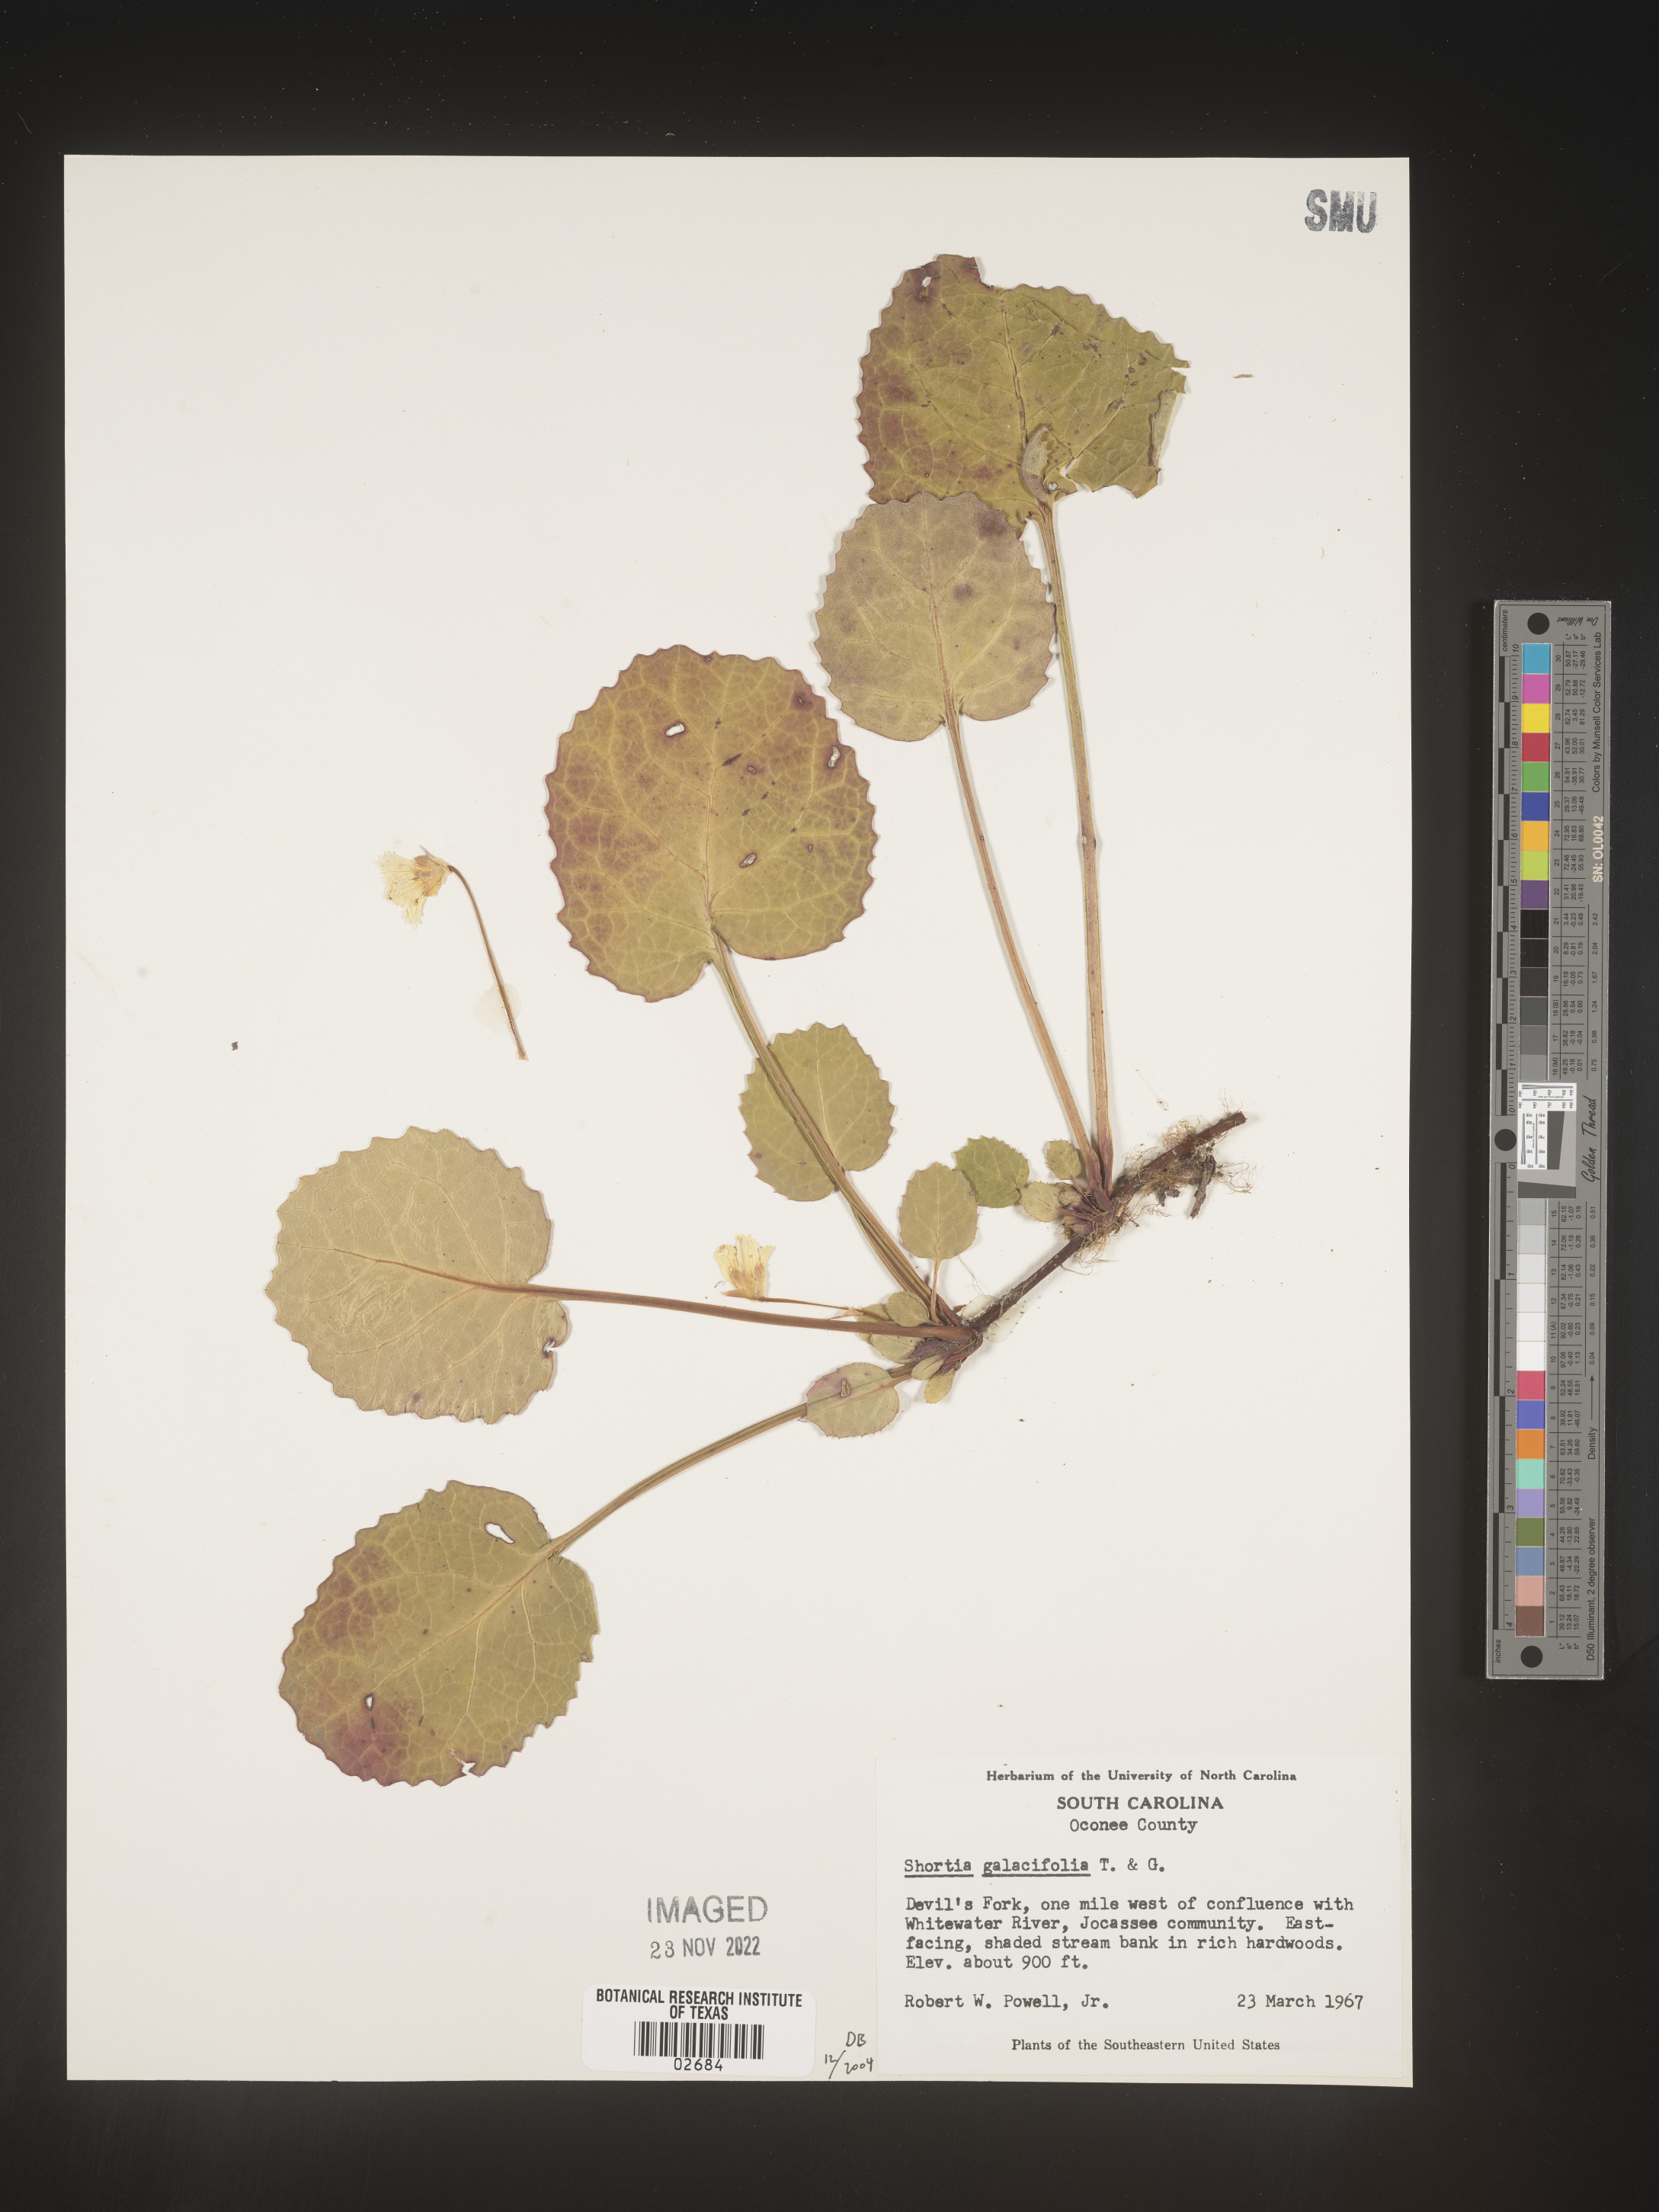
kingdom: Plantae
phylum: Tracheophyta
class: Magnoliopsida
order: Ericales
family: Diapensiaceae
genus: Shortia
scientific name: Shortia galacifolia
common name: Shortia
